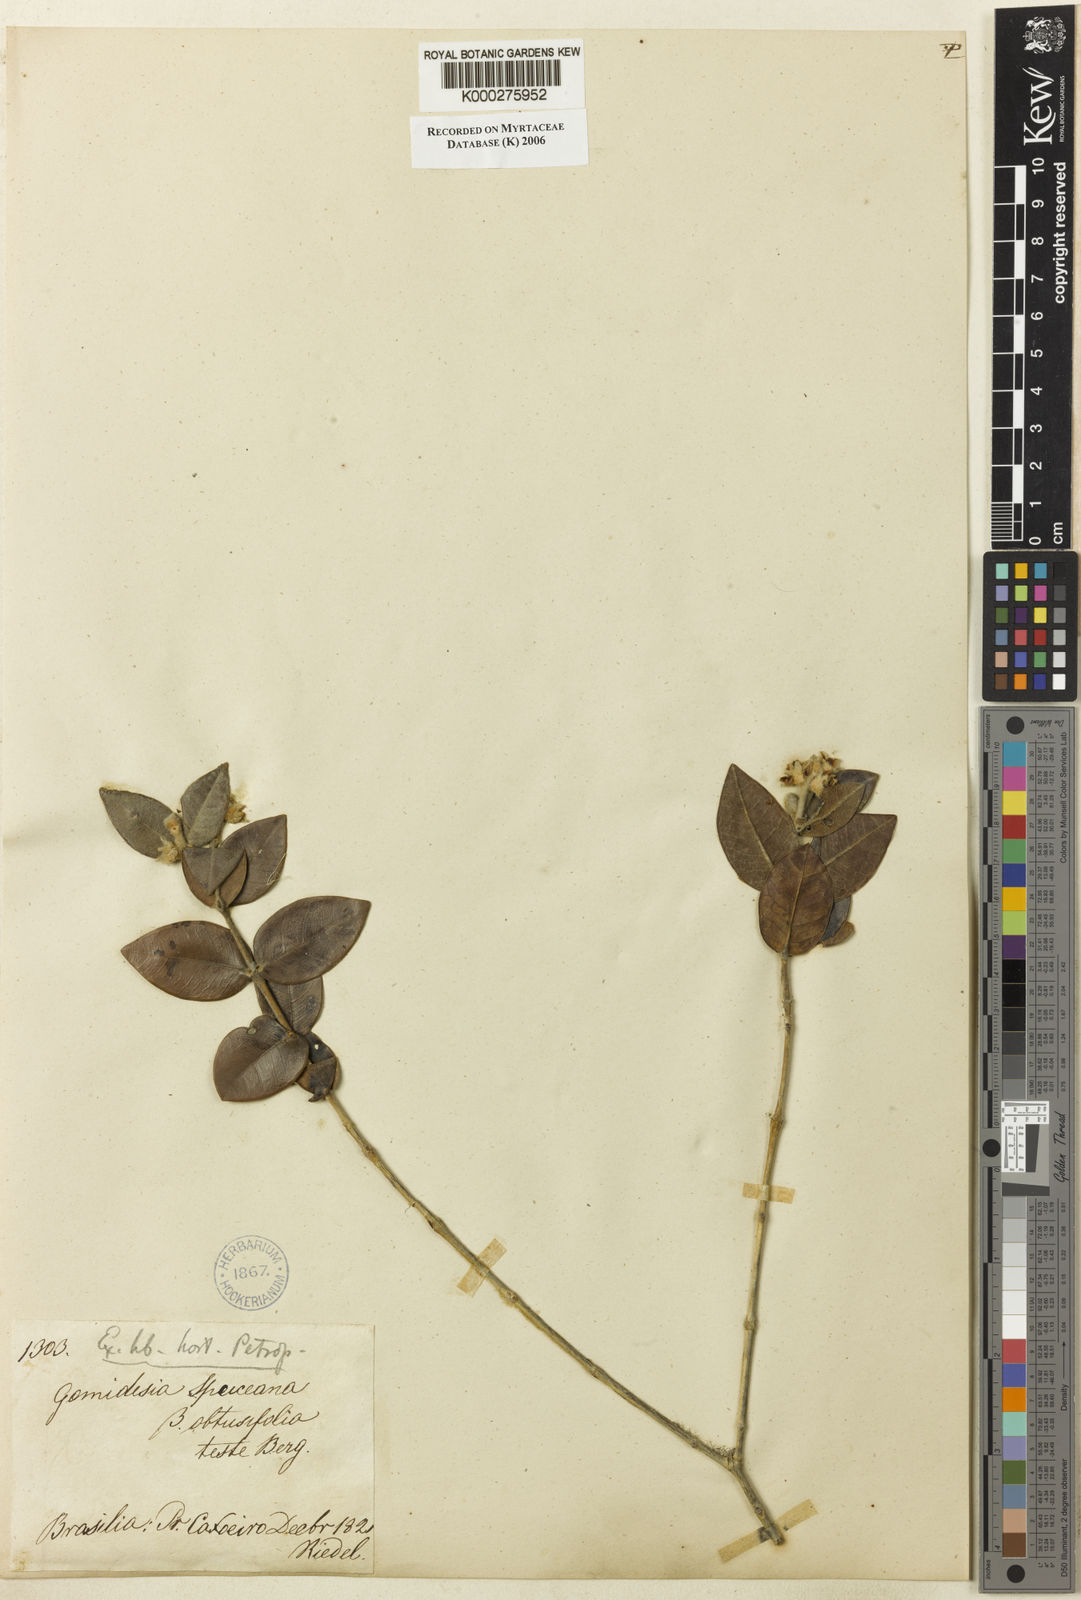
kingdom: Plantae
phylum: Tracheophyta
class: Magnoliopsida
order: Myrtales
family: Myrtaceae
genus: Myrcia
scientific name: Myrcia neospruceana
